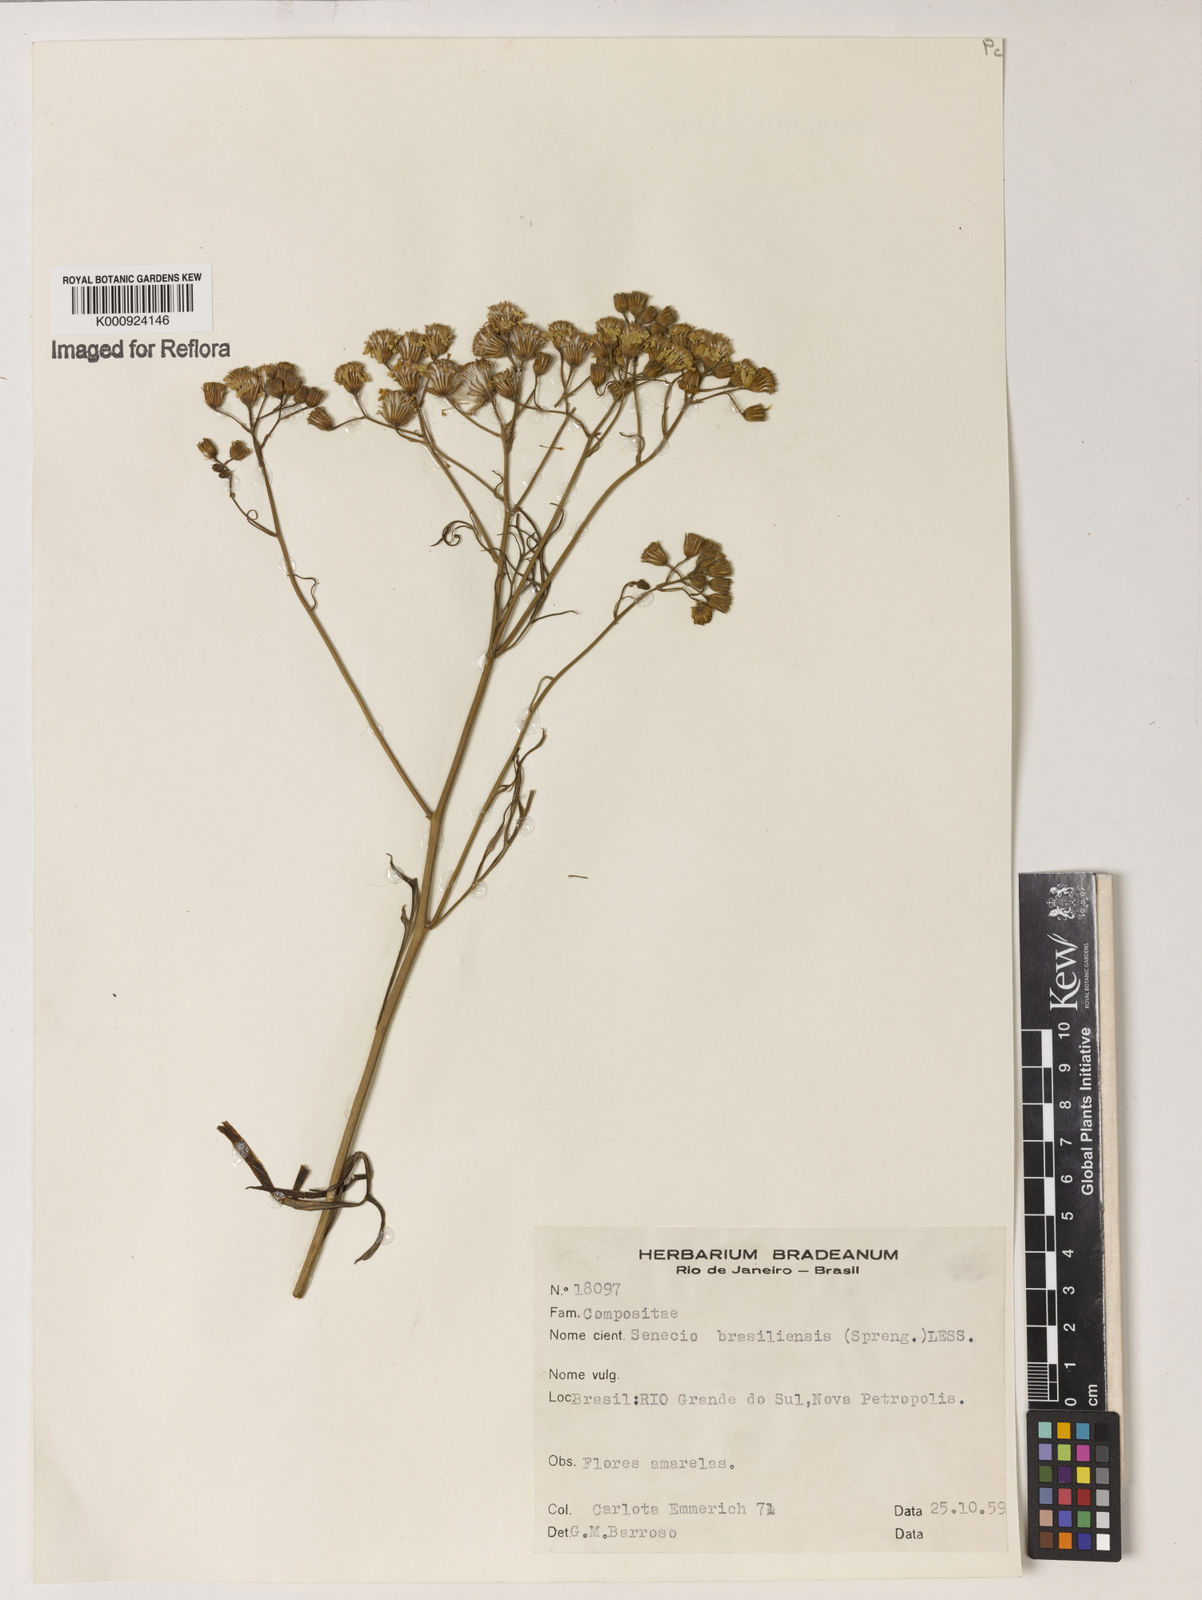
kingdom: Plantae
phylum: Tracheophyta
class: Magnoliopsida
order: Asterales
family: Asteraceae
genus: Senecio
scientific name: Senecio brasiliensis
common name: Hemp-leaf ragwort
